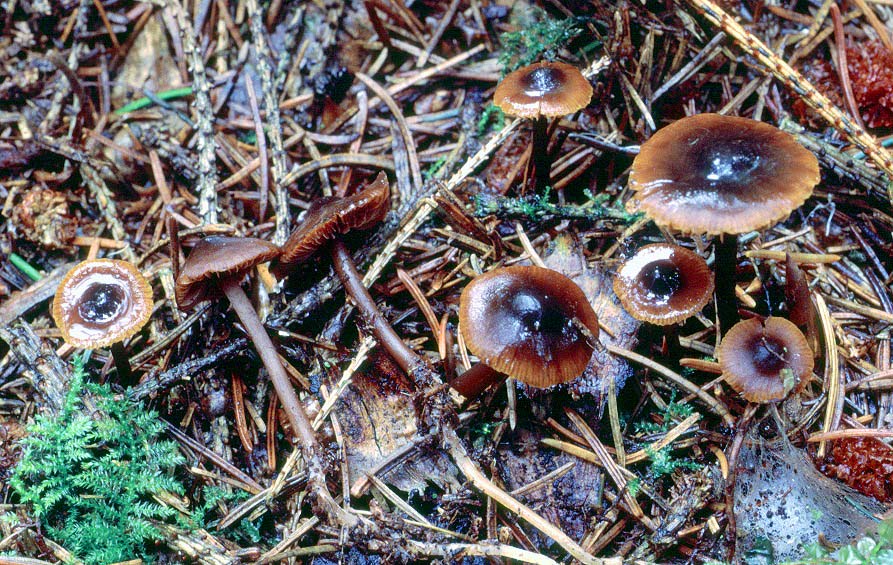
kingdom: Fungi
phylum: Basidiomycota
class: Agaricomycetes
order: Agaricales
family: Hymenogastraceae
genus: Phaeocollybia
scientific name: Phaeocollybia arduennensis
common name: mørk spidshat
